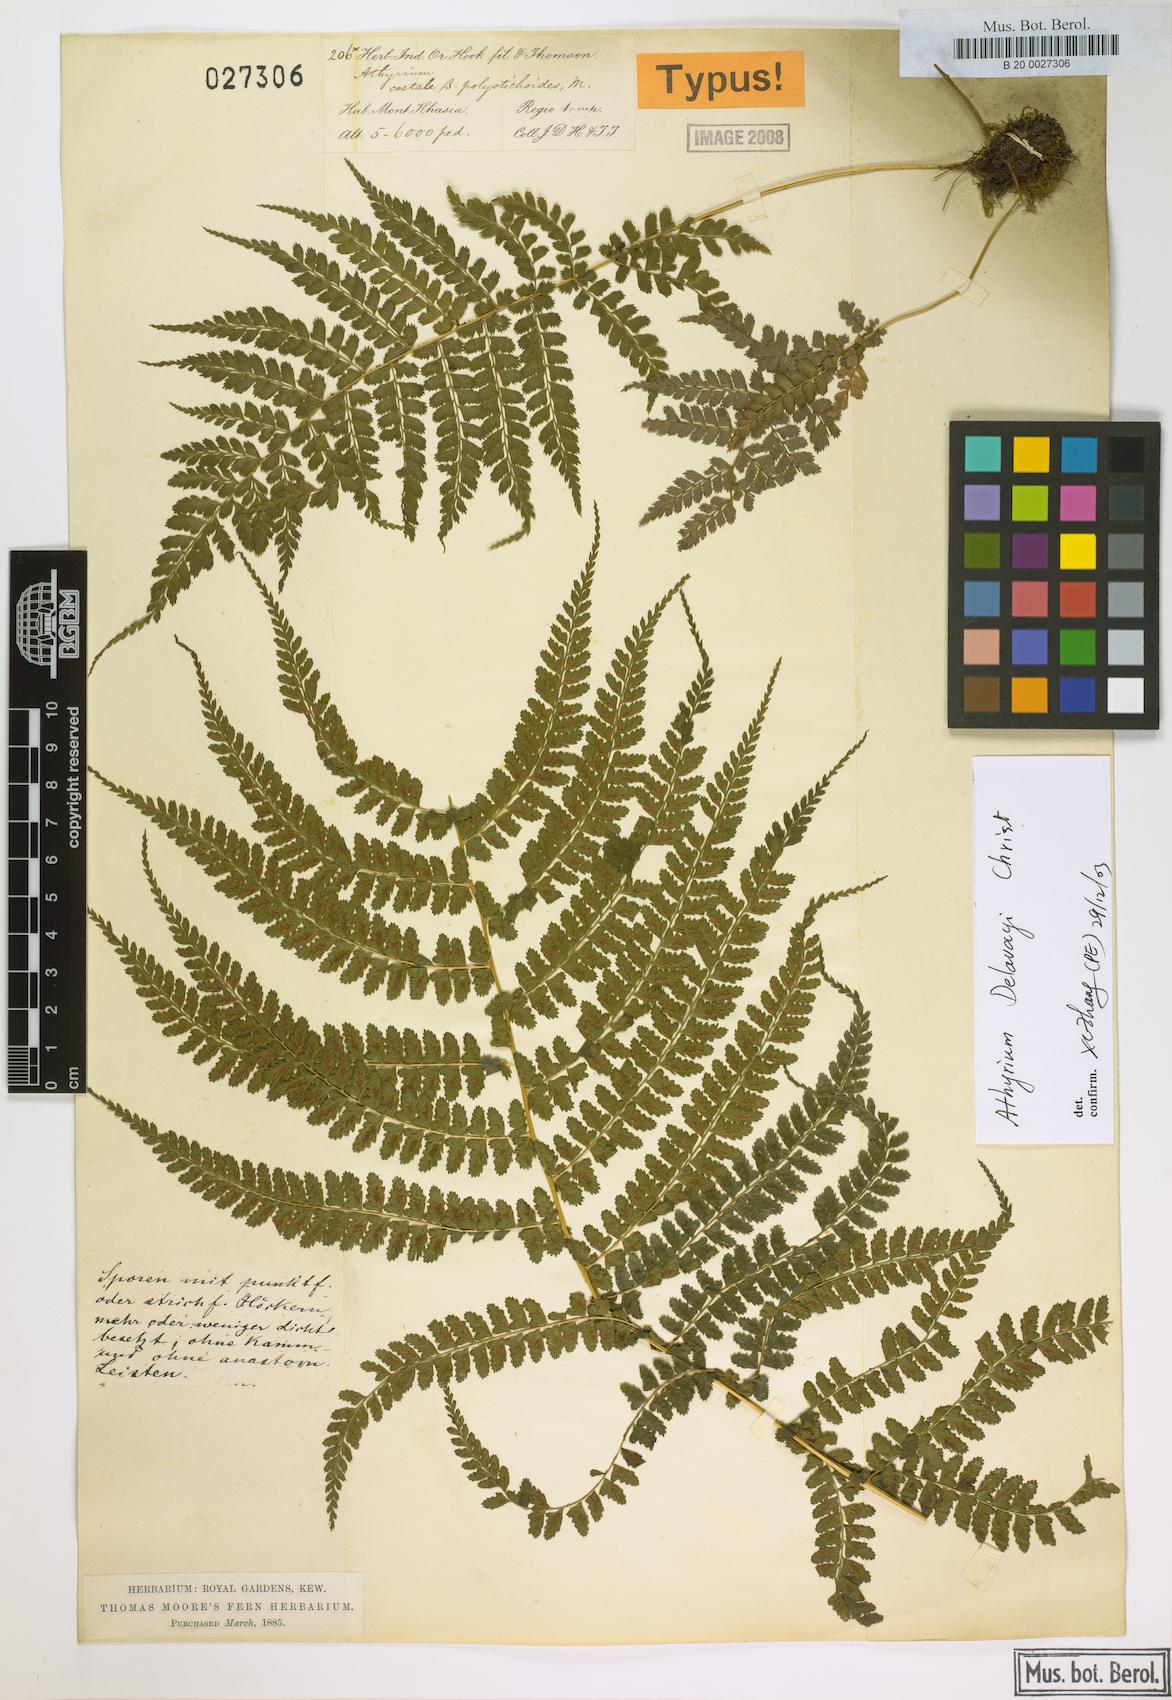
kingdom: Plantae
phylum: Tracheophyta
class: Polypodiopsida
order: Polypodiales
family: Athyriaceae
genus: Athyrium
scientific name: Athyrium delavayi
